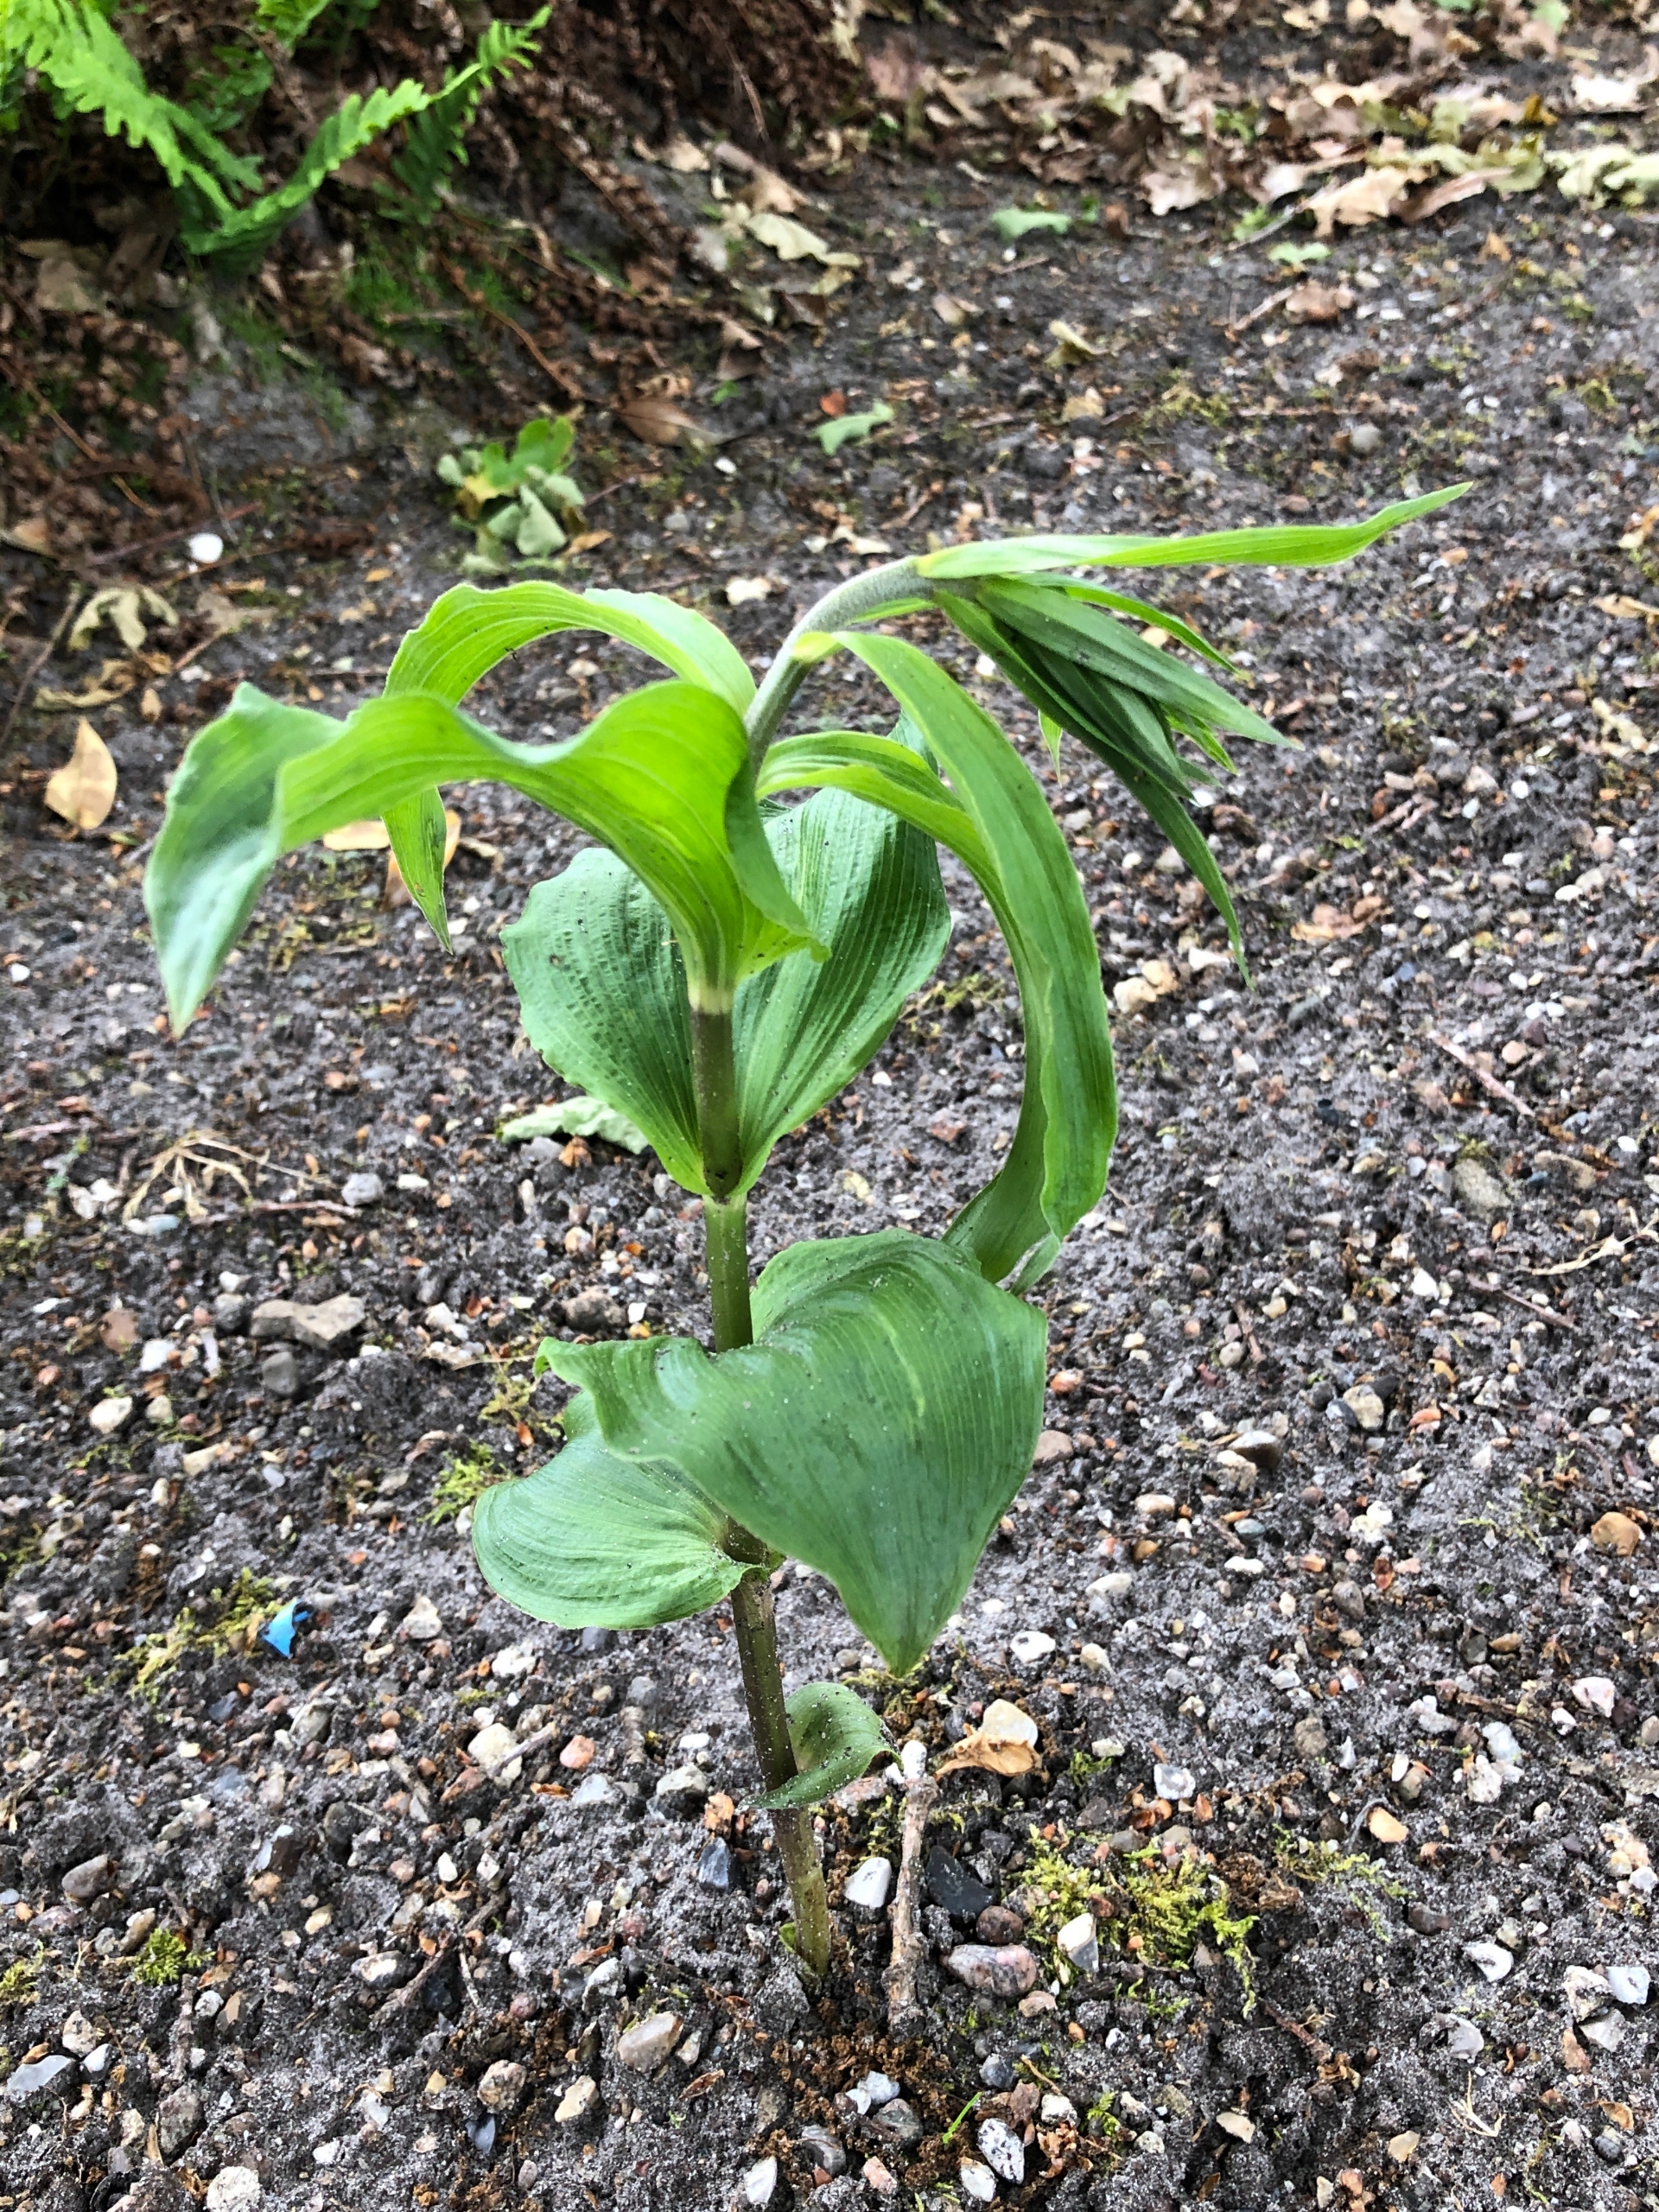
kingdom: Plantae
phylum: Tracheophyta
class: Liliopsida
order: Asparagales
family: Orchidaceae
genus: Epipactis
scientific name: Epipactis helleborine
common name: Skov-hullæbe
